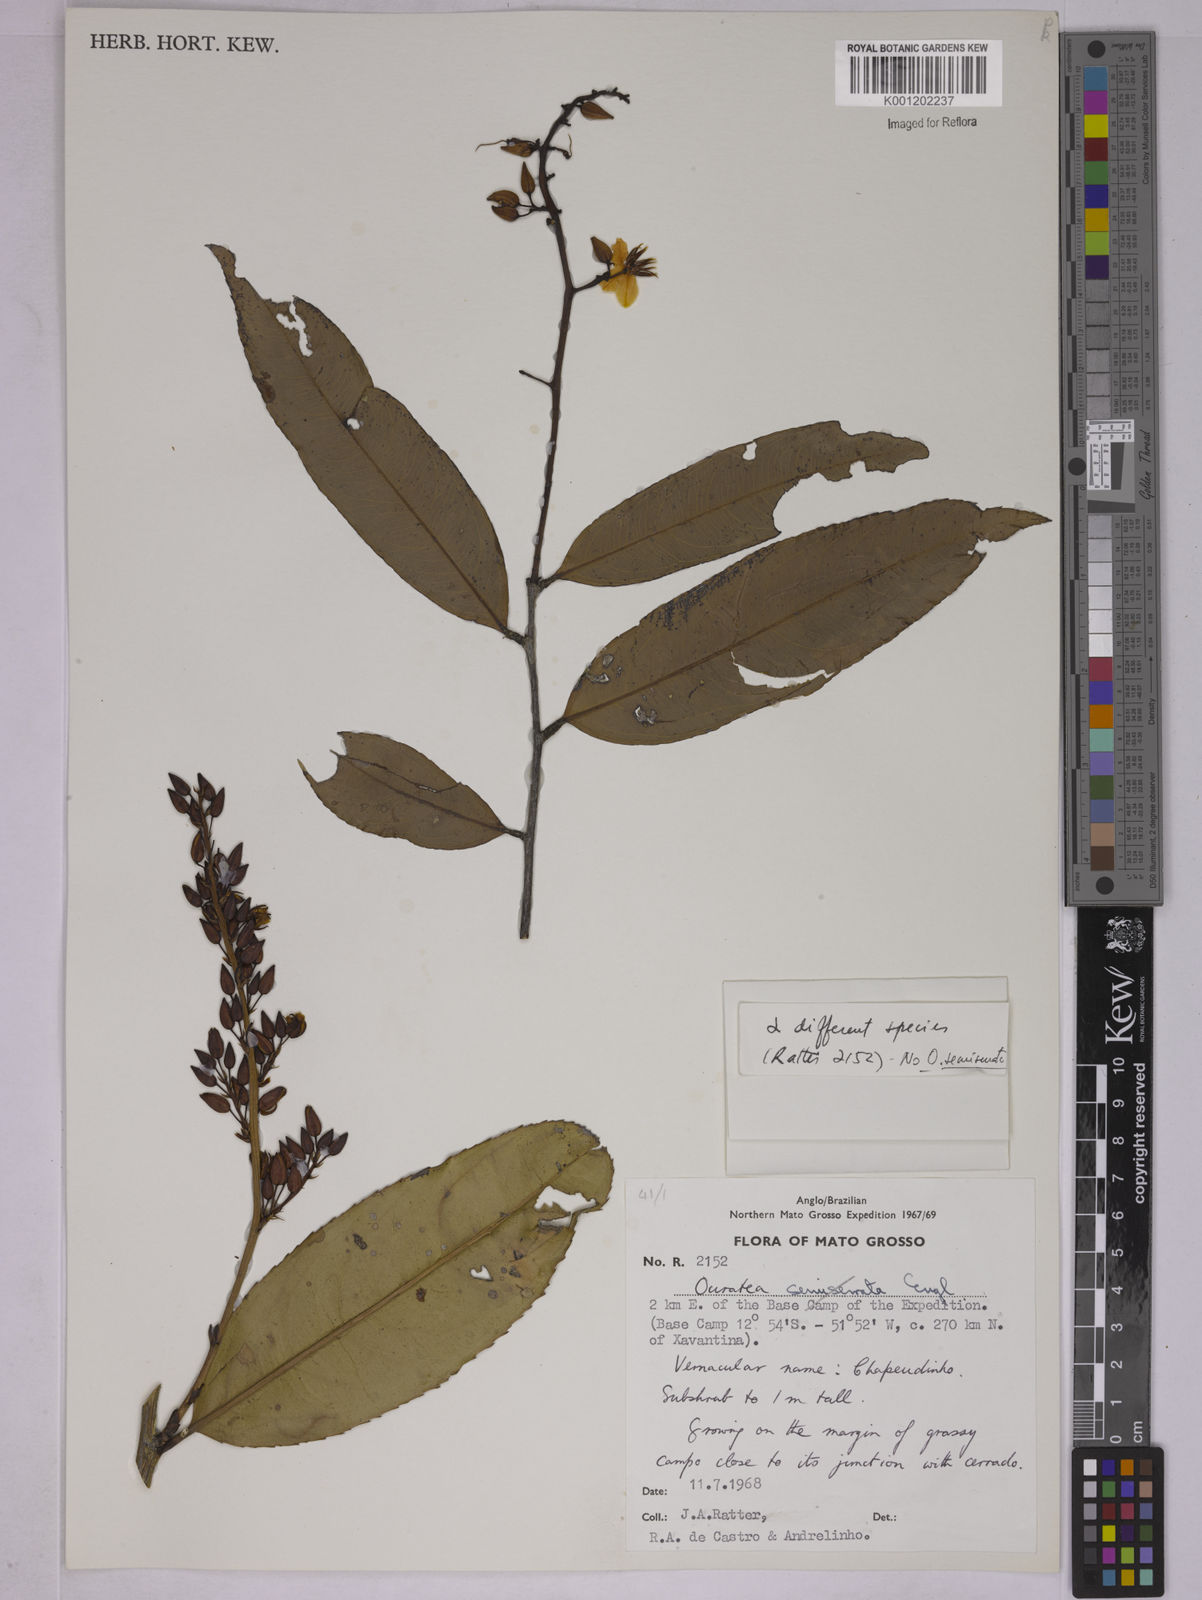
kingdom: Plantae
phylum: Tracheophyta
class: Magnoliopsida
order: Malpighiales
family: Ochnaceae
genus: Ouratea
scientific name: Ouratea
